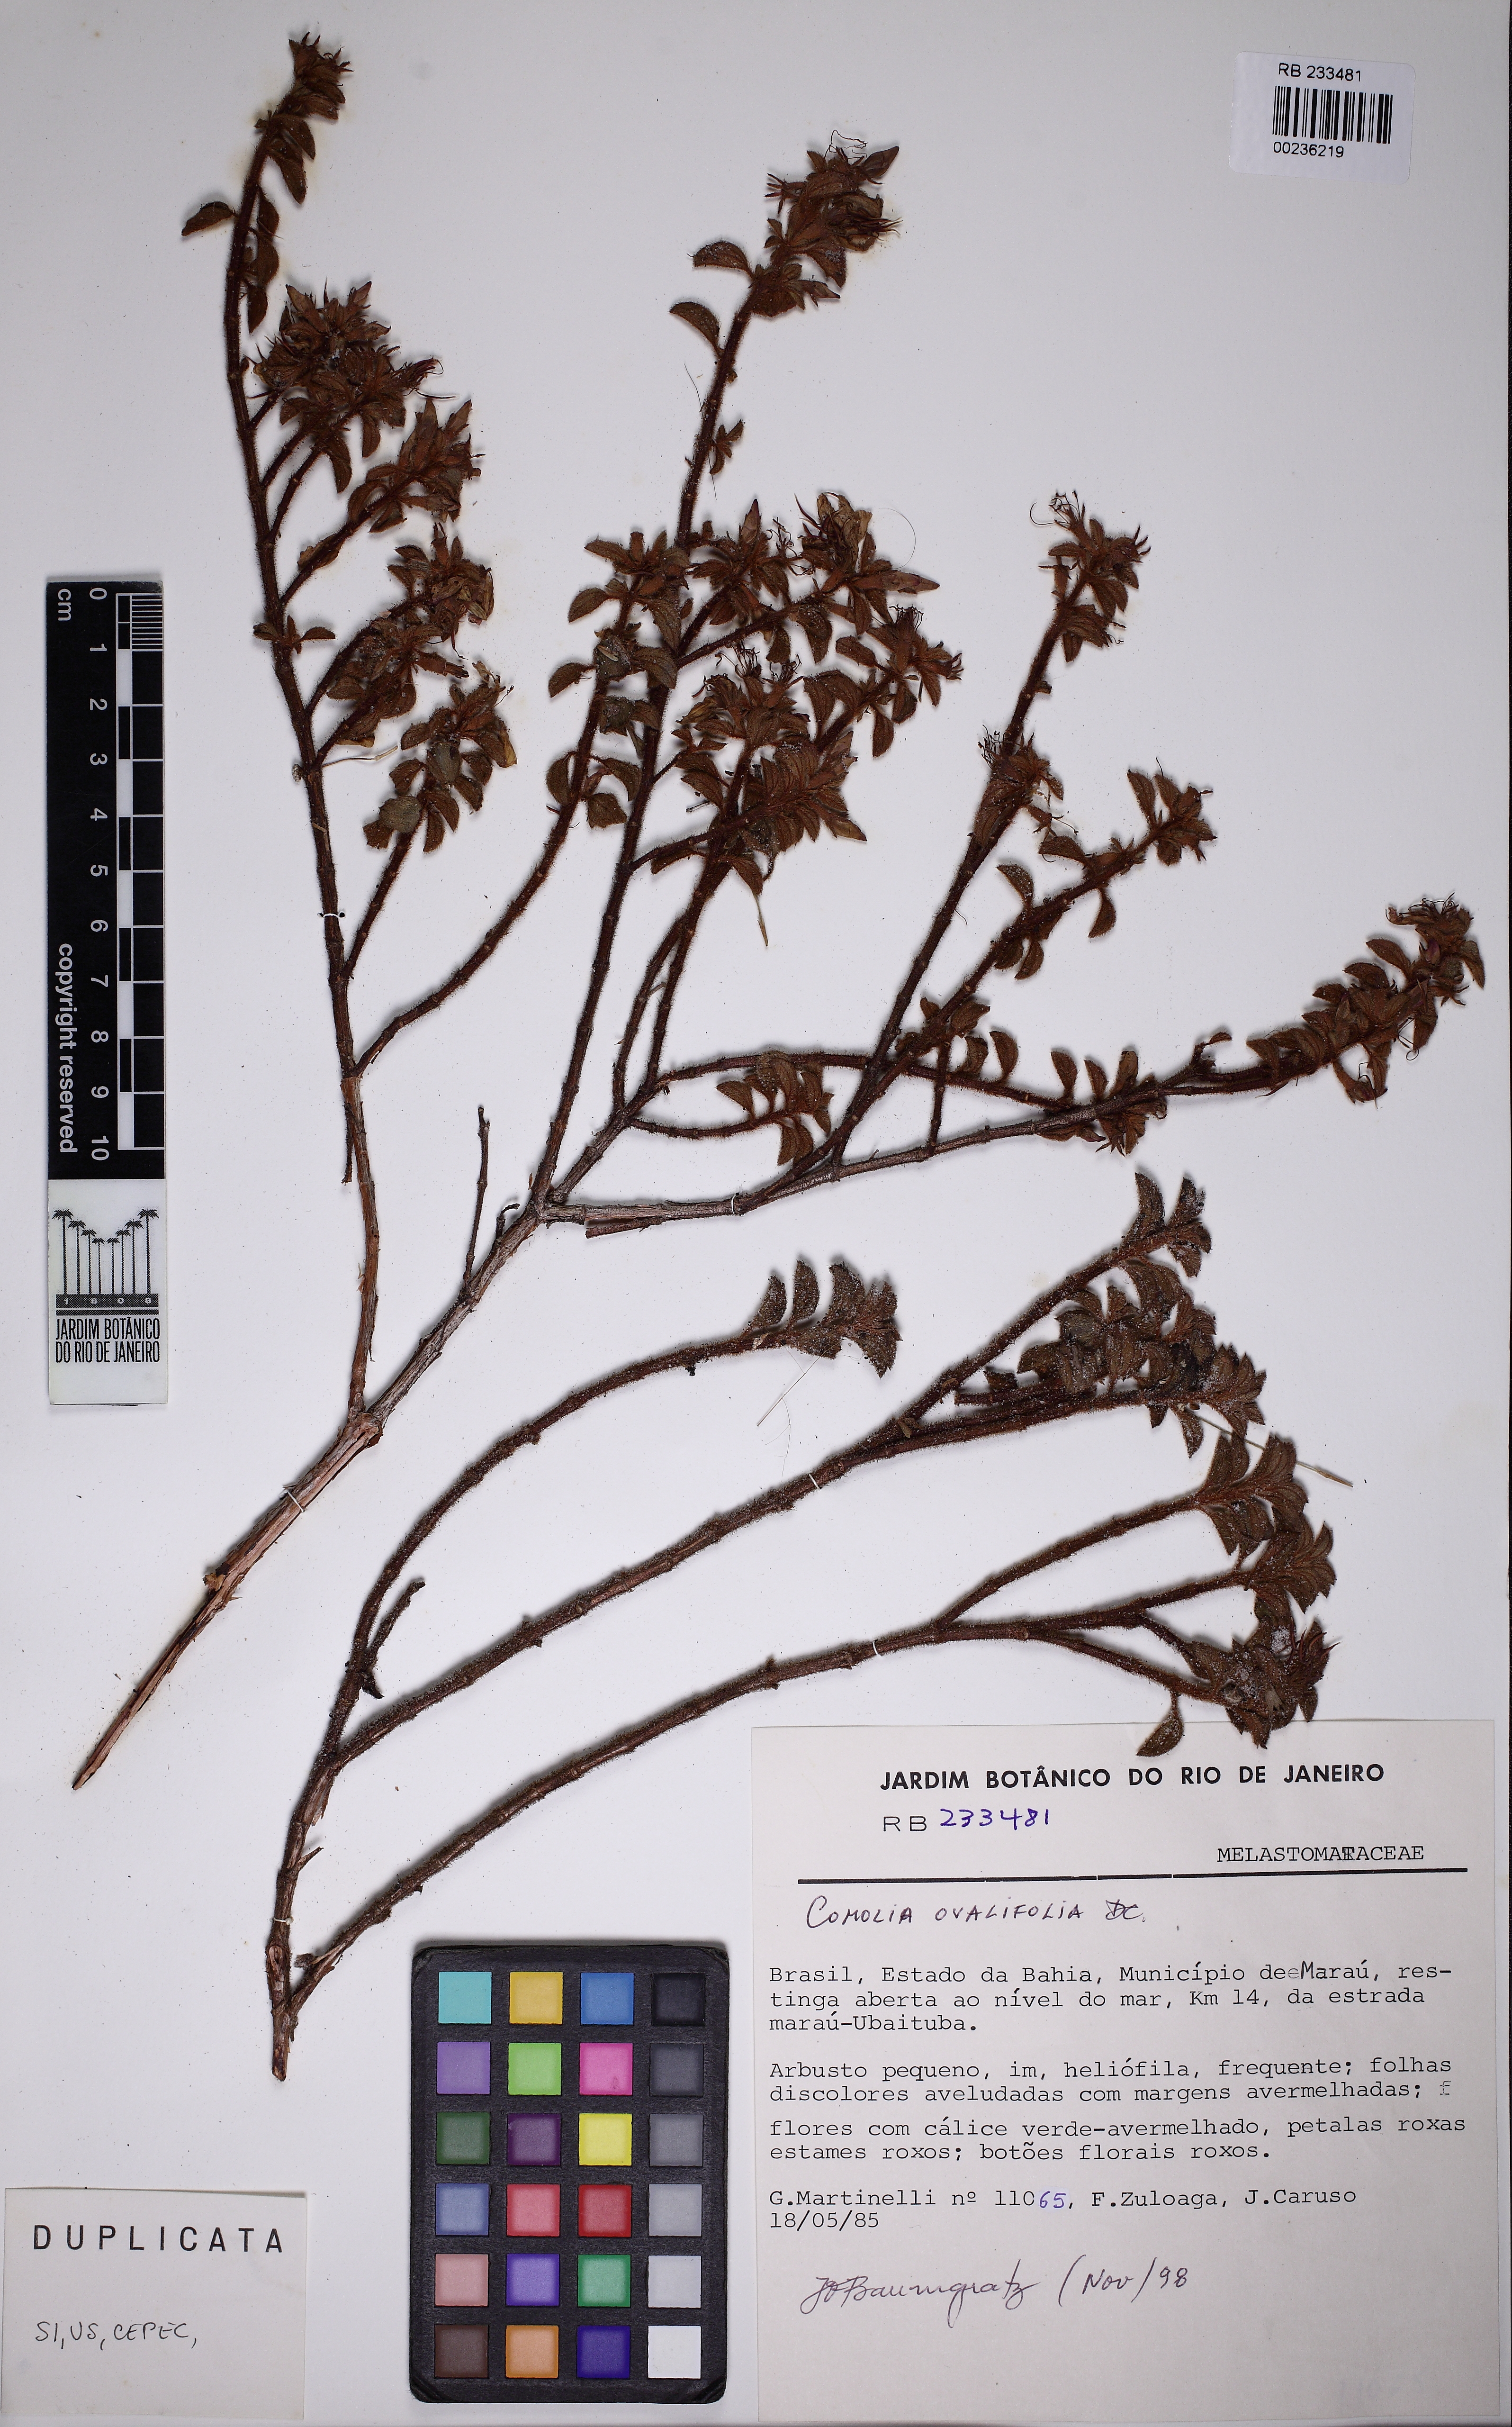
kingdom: Plantae
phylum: Tracheophyta
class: Magnoliopsida
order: Myrtales
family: Melastomataceae
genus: Comolia
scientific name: Comolia ovalifolia
